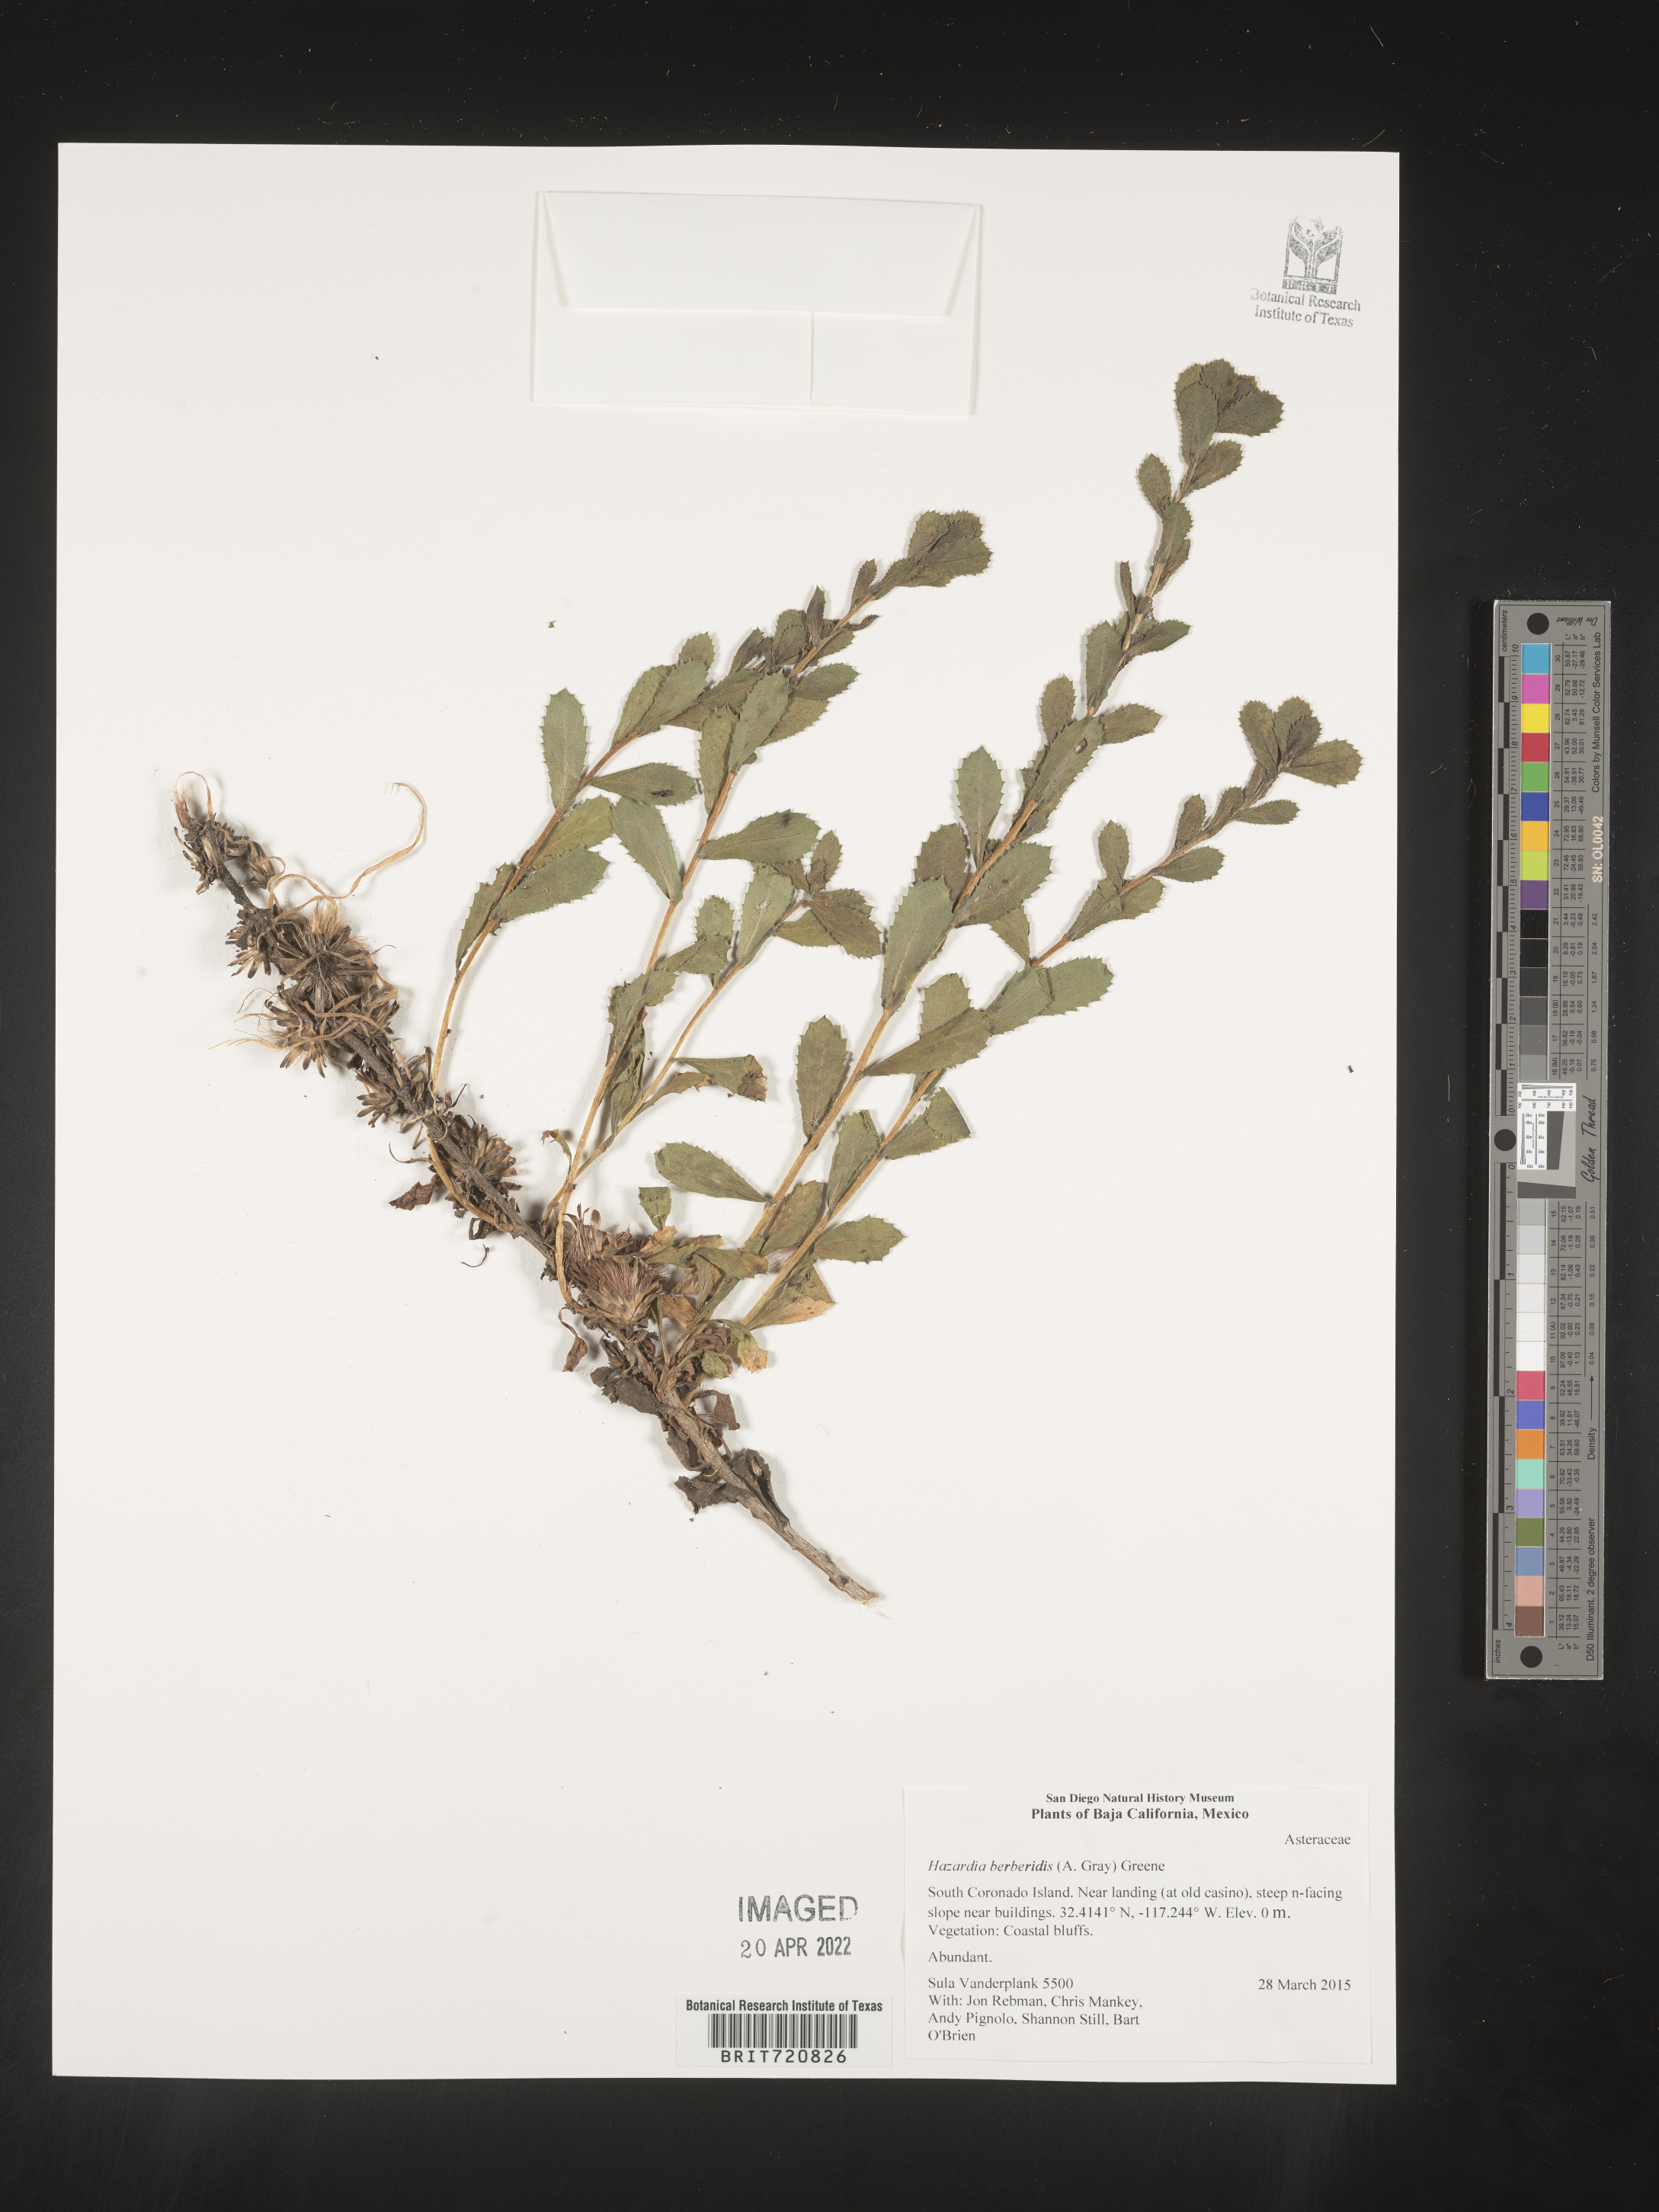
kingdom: Plantae
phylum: Tracheophyta
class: Magnoliopsida
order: Asterales
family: Asteraceae
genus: Hazardia
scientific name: Hazardia
